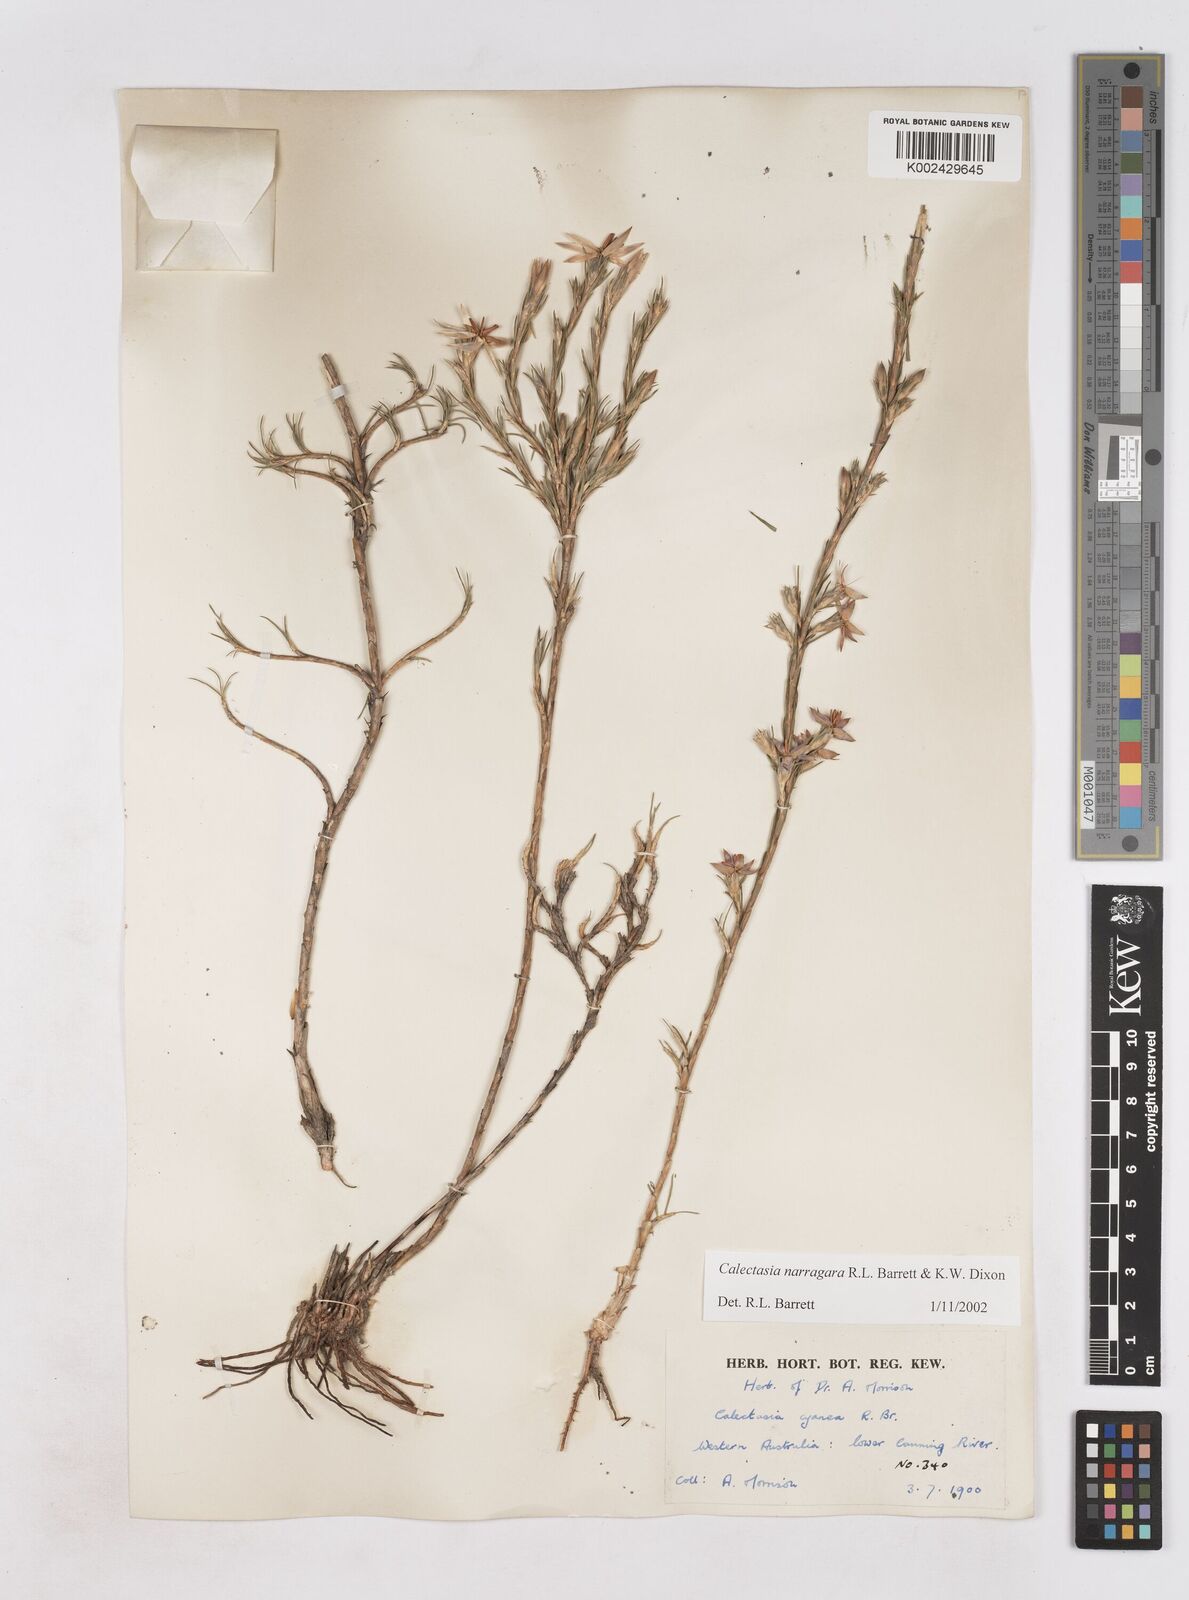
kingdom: Plantae
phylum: Tracheophyta
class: Liliopsida
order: Arecales
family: Dasypogonaceae
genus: Calectasia
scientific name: Calectasia narragara
